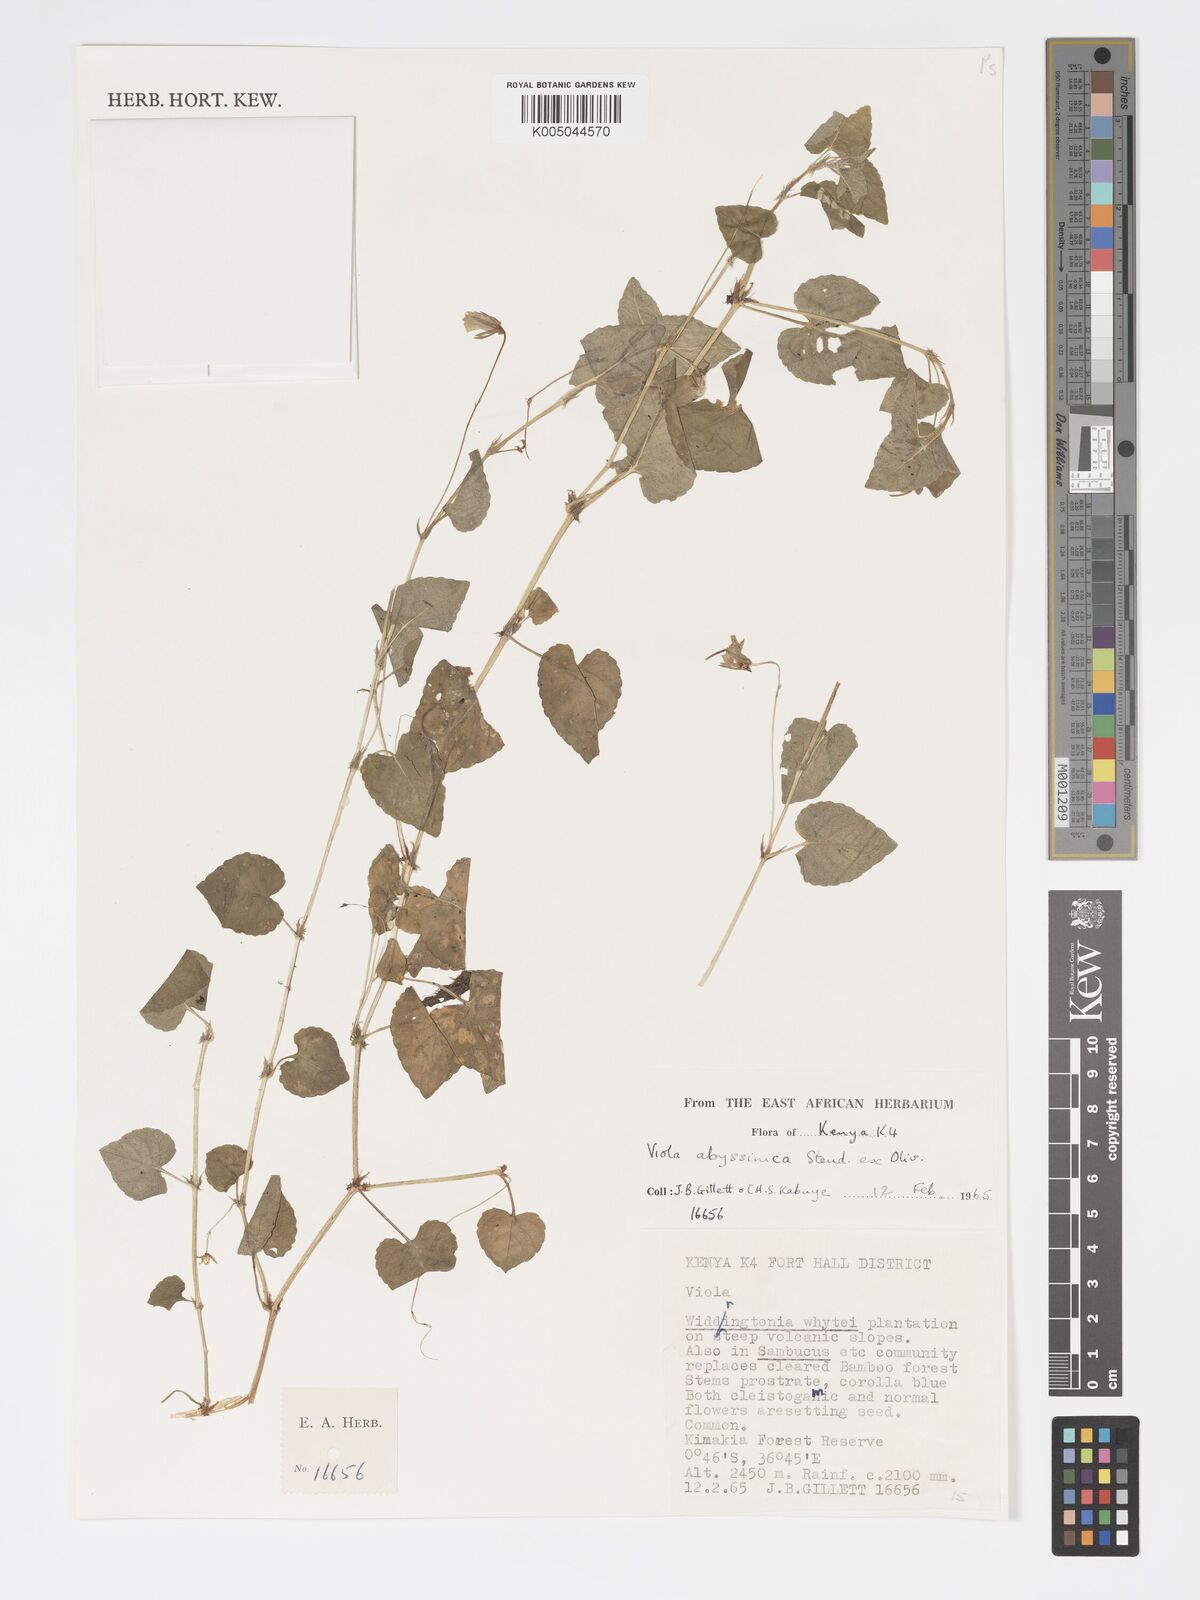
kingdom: Plantae
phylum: Tracheophyta
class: Magnoliopsida
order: Malpighiales
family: Violaceae
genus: Viola
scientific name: Viola abyssinica
